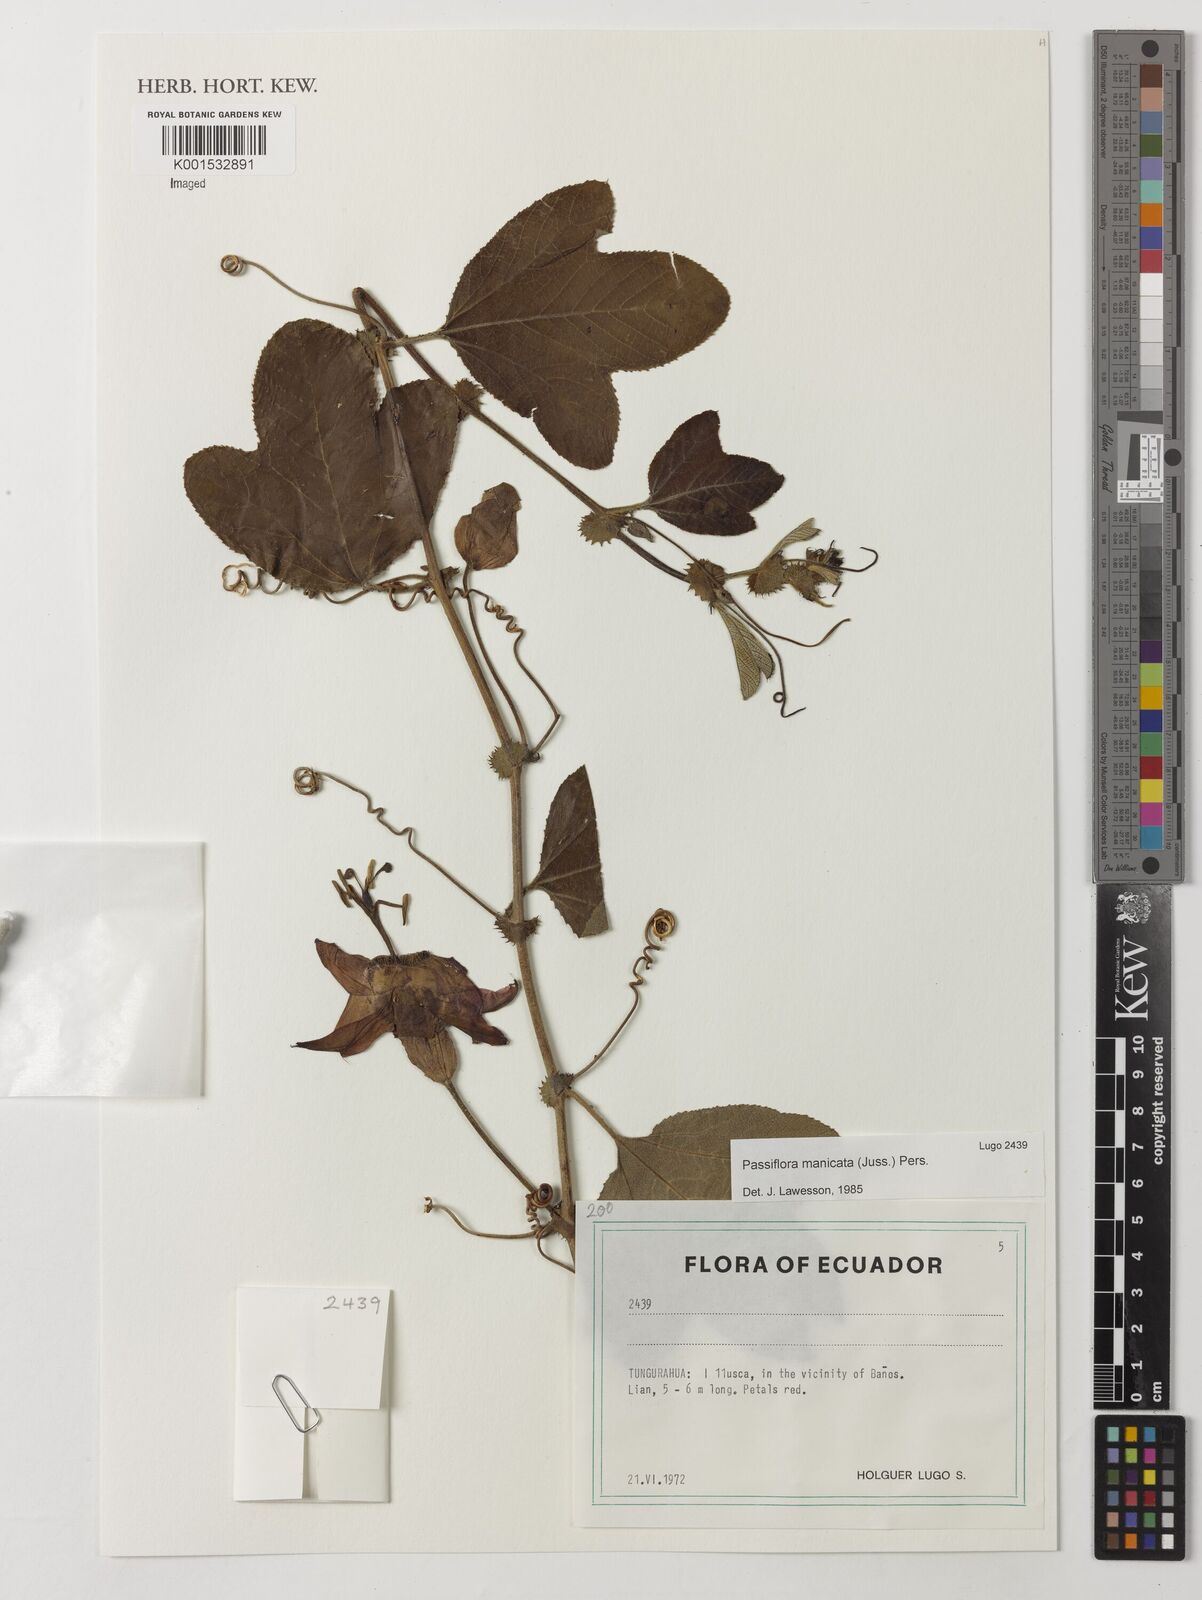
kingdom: Plantae
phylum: Tracheophyta
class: Magnoliopsida
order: Malpighiales
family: Passifloraceae
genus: Passiflora
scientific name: Passiflora manicata
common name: Red passionflower
